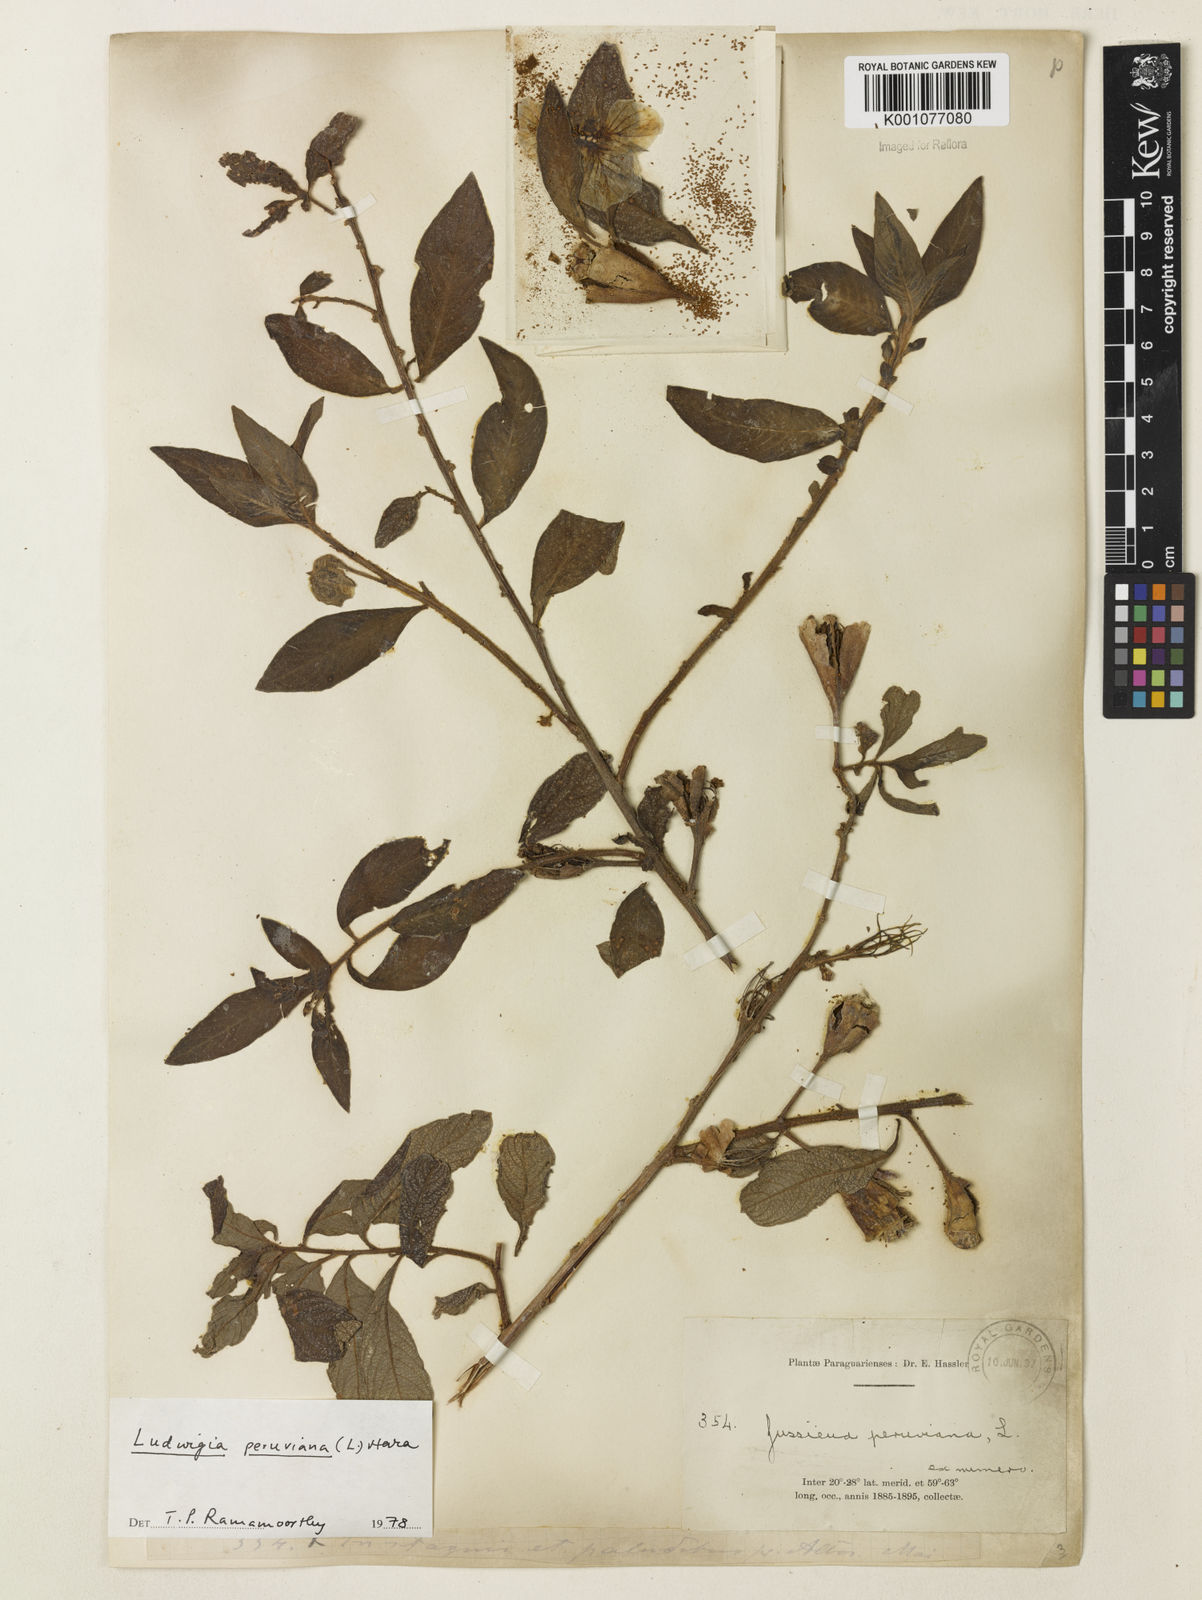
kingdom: Plantae
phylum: Tracheophyta
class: Magnoliopsida
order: Myrtales
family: Onagraceae
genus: Ludwigia
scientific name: Ludwigia peruviana
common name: Peruvian primrose-willow
